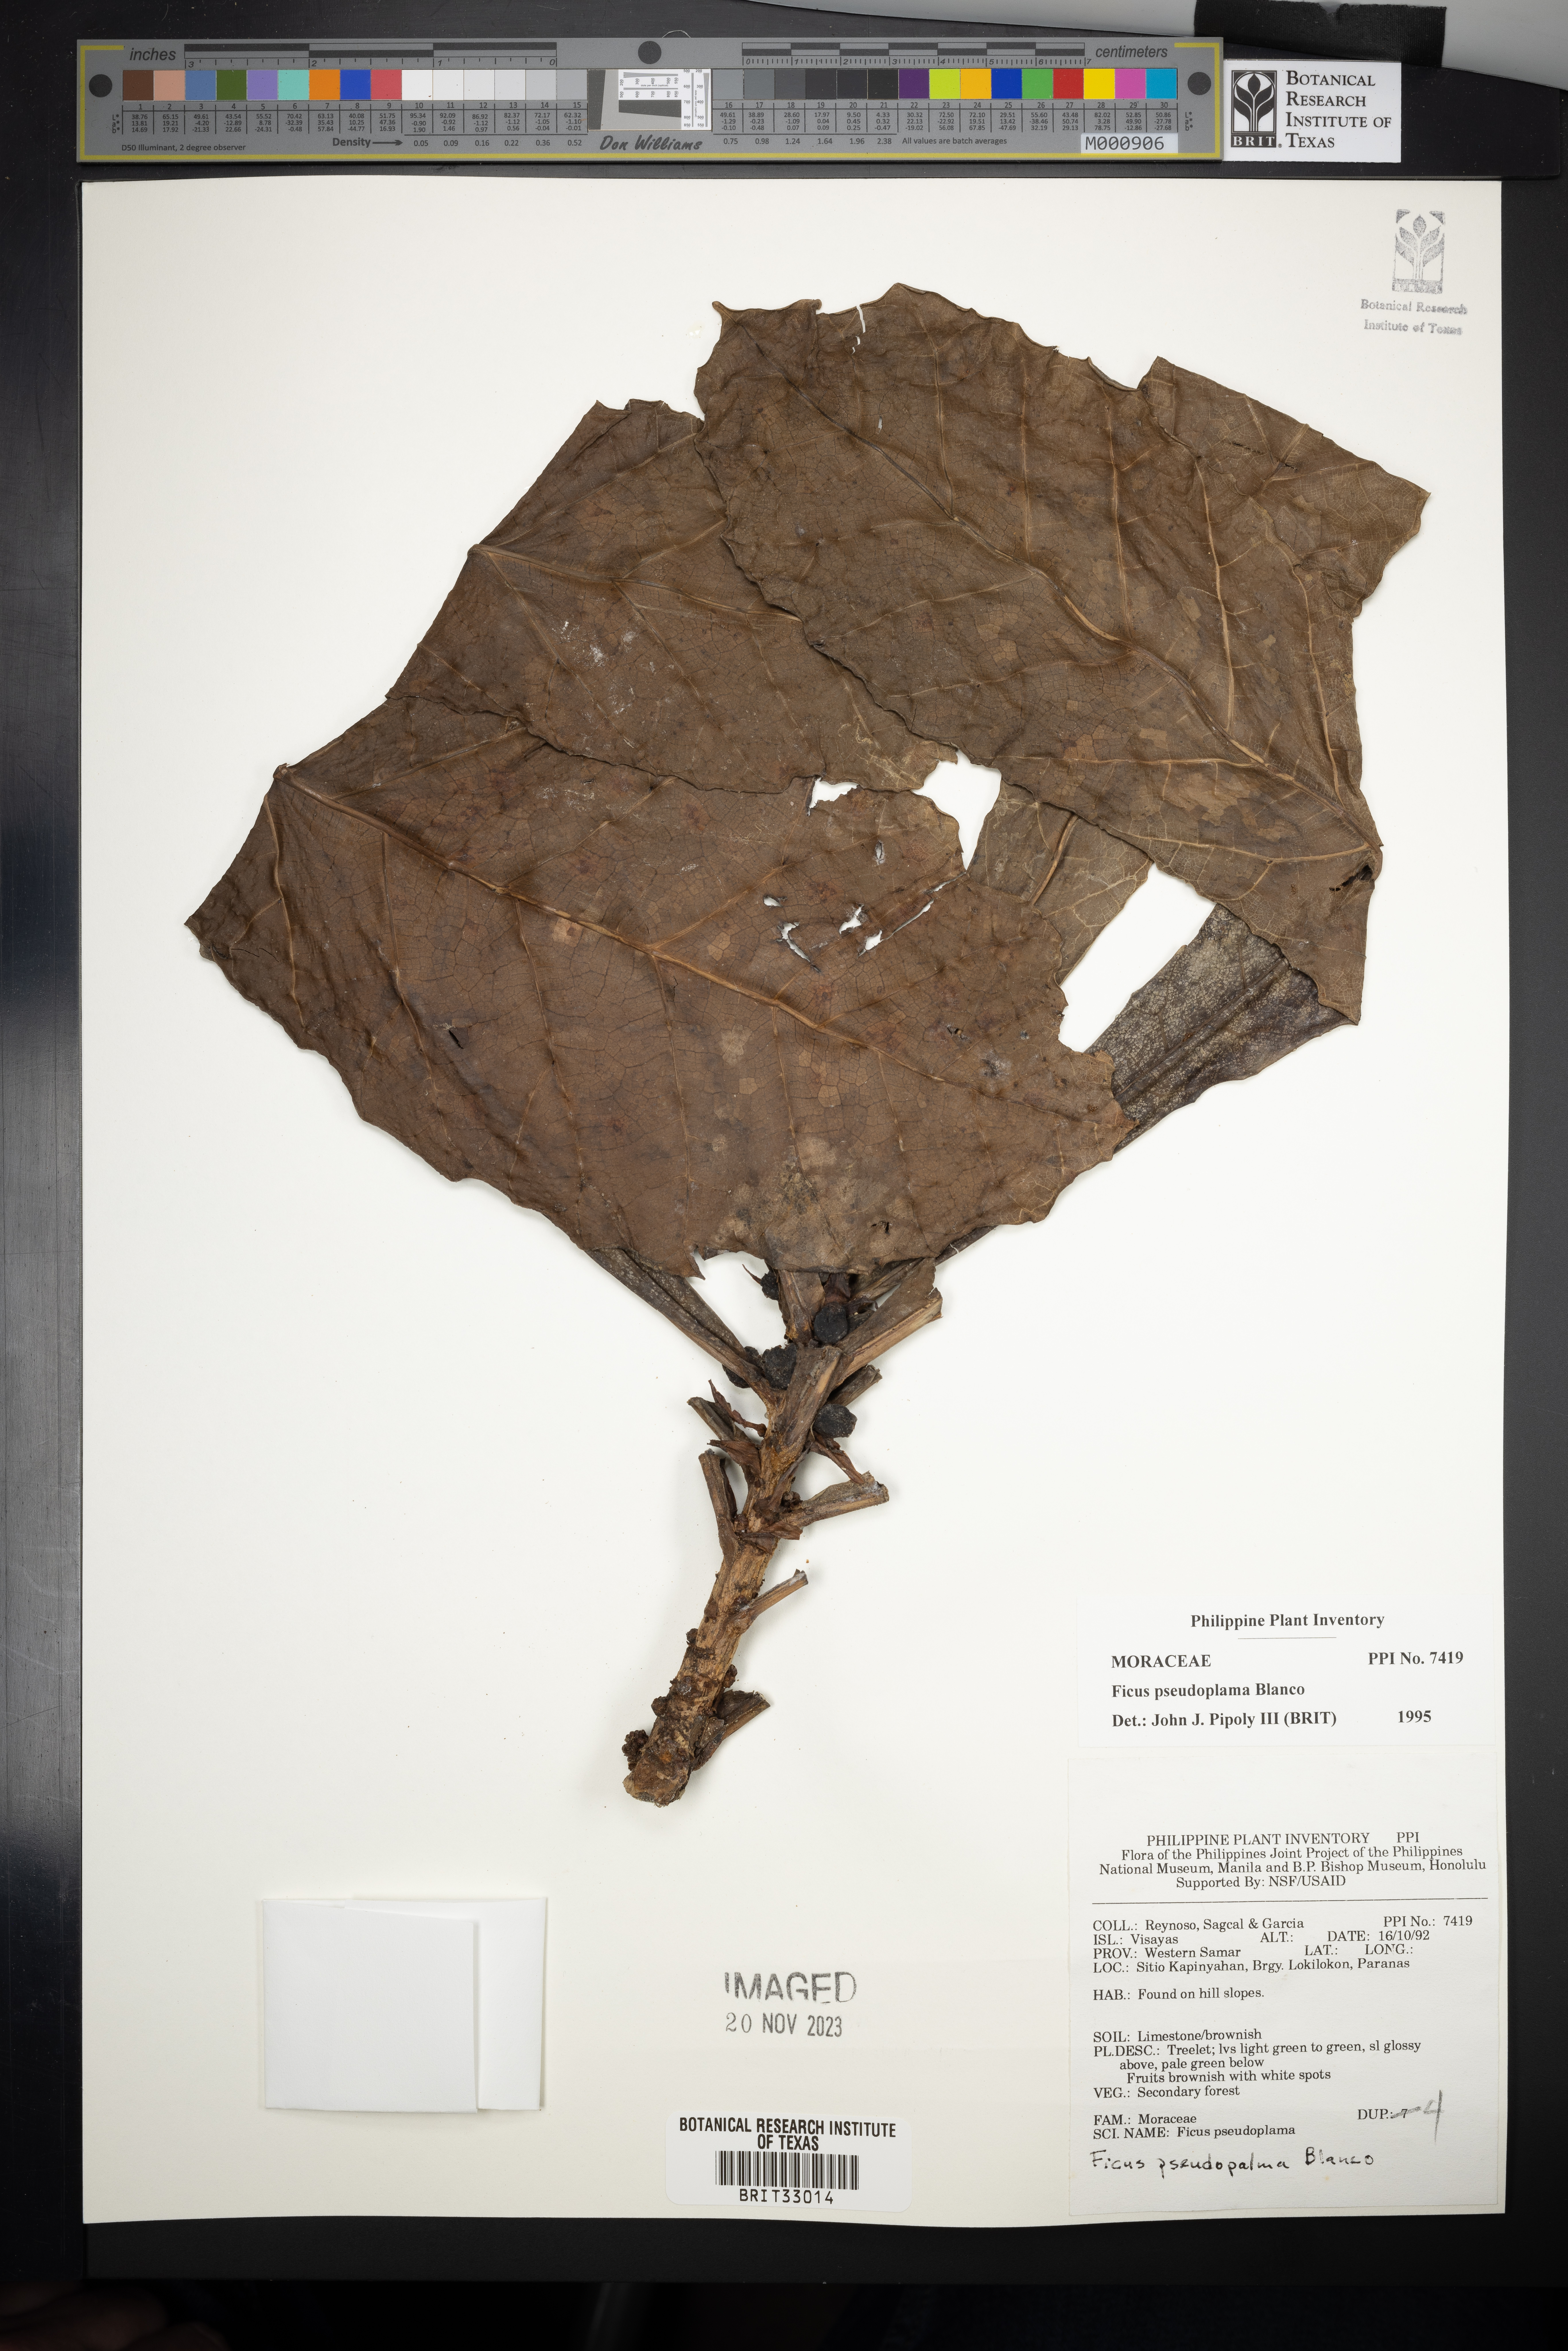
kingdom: Plantae
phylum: Tracheophyta
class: Magnoliopsida
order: Rosales
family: Moraceae
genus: Ficus
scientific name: Ficus pseudopalma
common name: Palm-like fig
